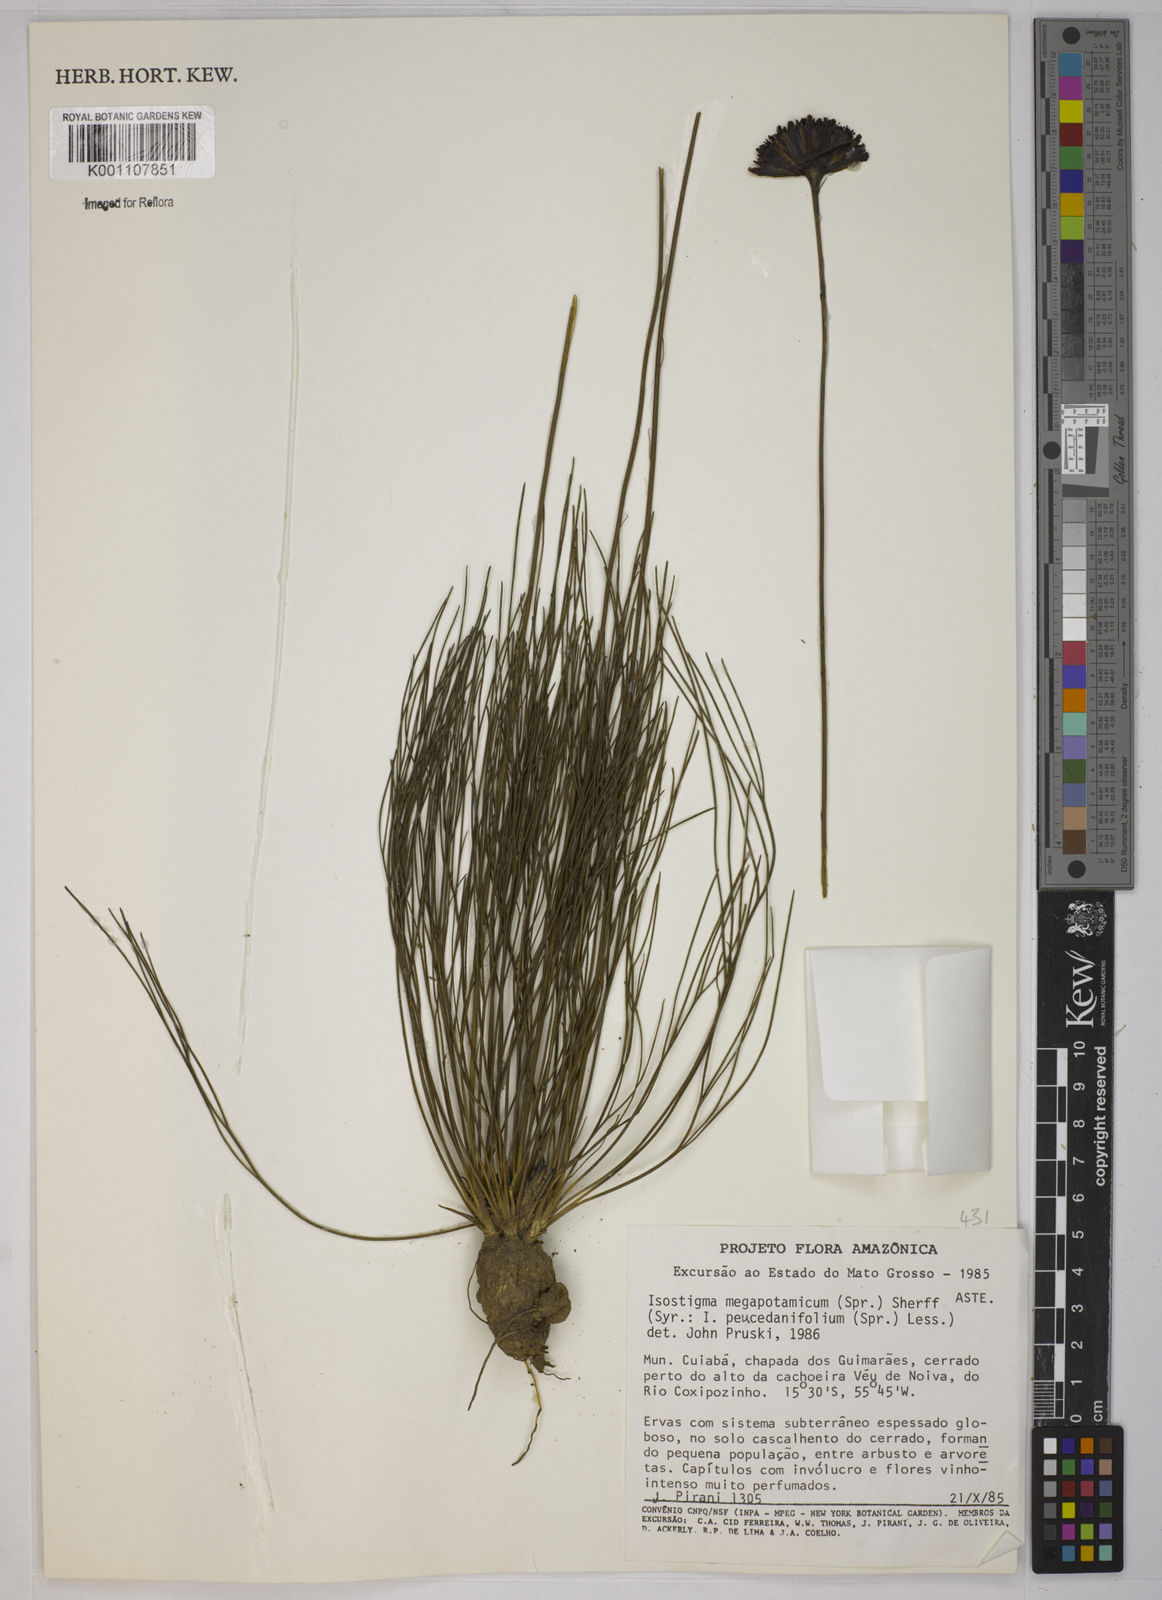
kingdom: Plantae
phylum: Tracheophyta
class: Magnoliopsida
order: Asterales
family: Asteraceae
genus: Isostigma
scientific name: Isostigma
